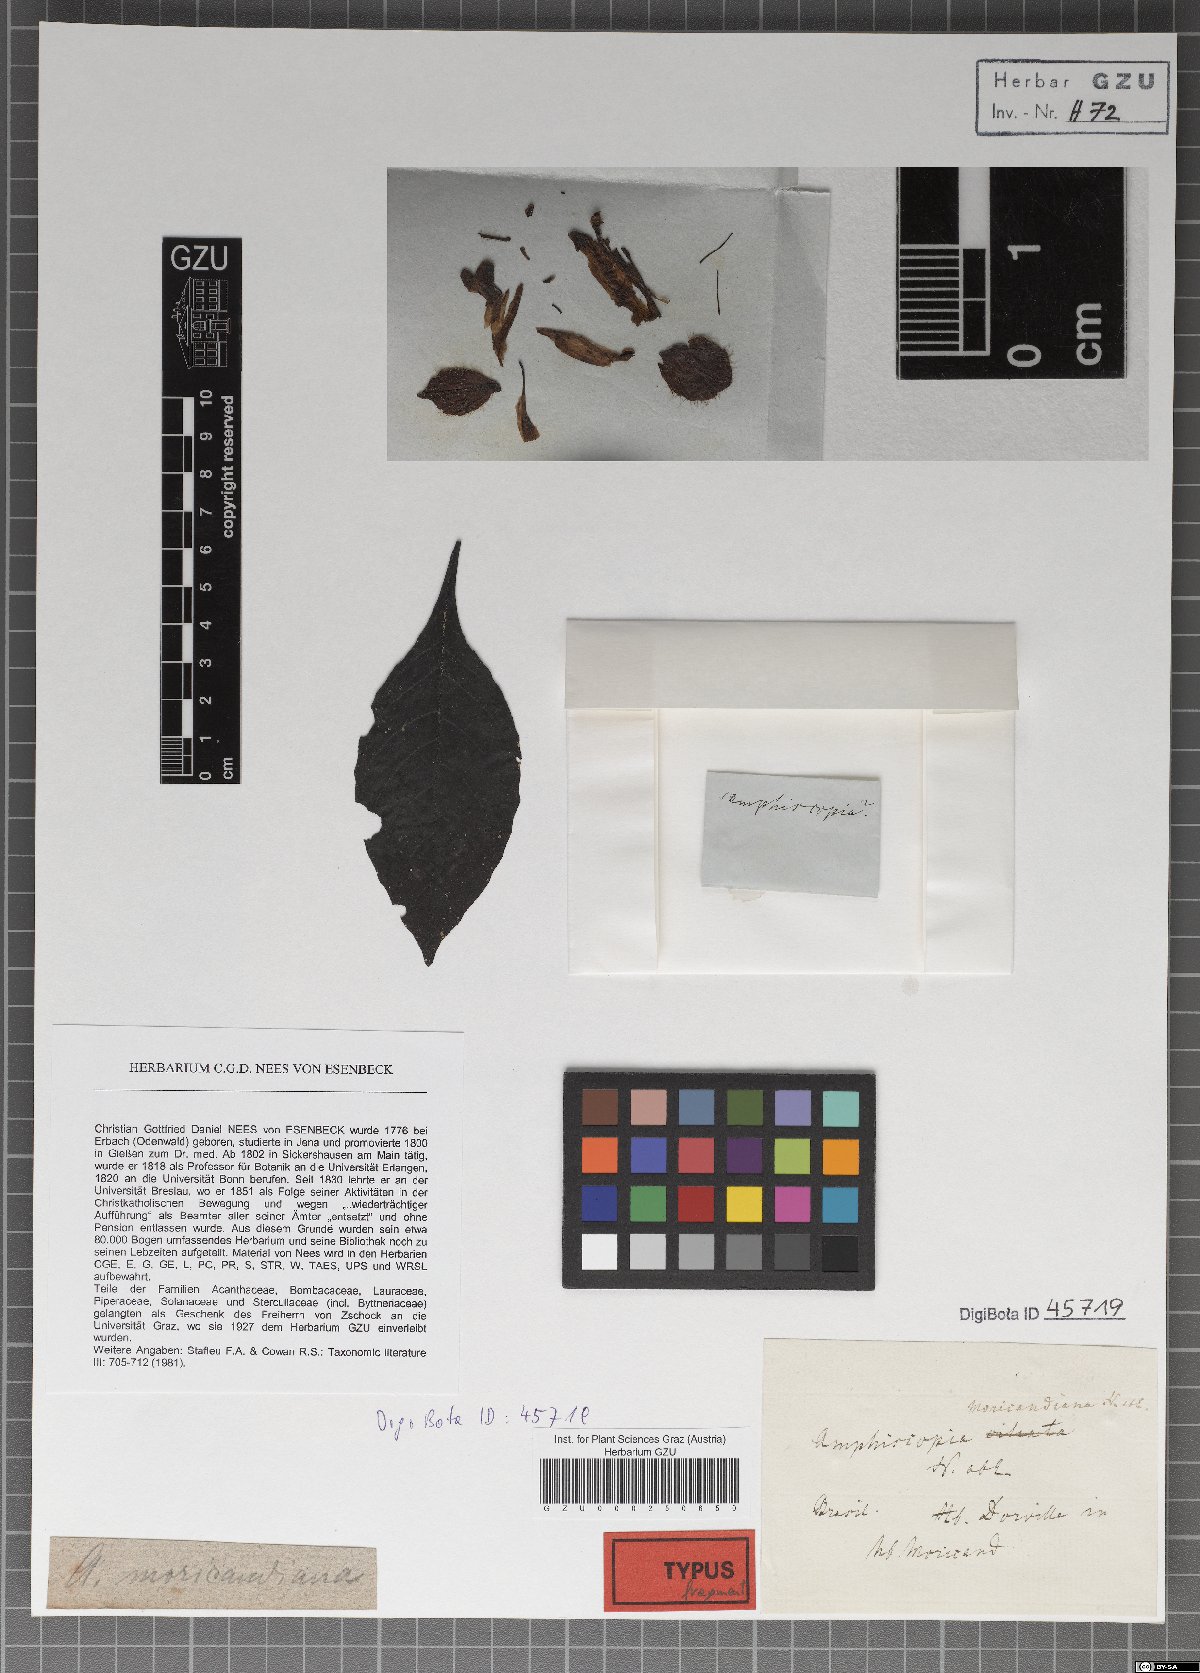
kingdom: Plantae
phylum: Tracheophyta
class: Magnoliopsida
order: Lamiales
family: Acanthaceae
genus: Justicia
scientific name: Justicia carnea
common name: Brazilian-plume
